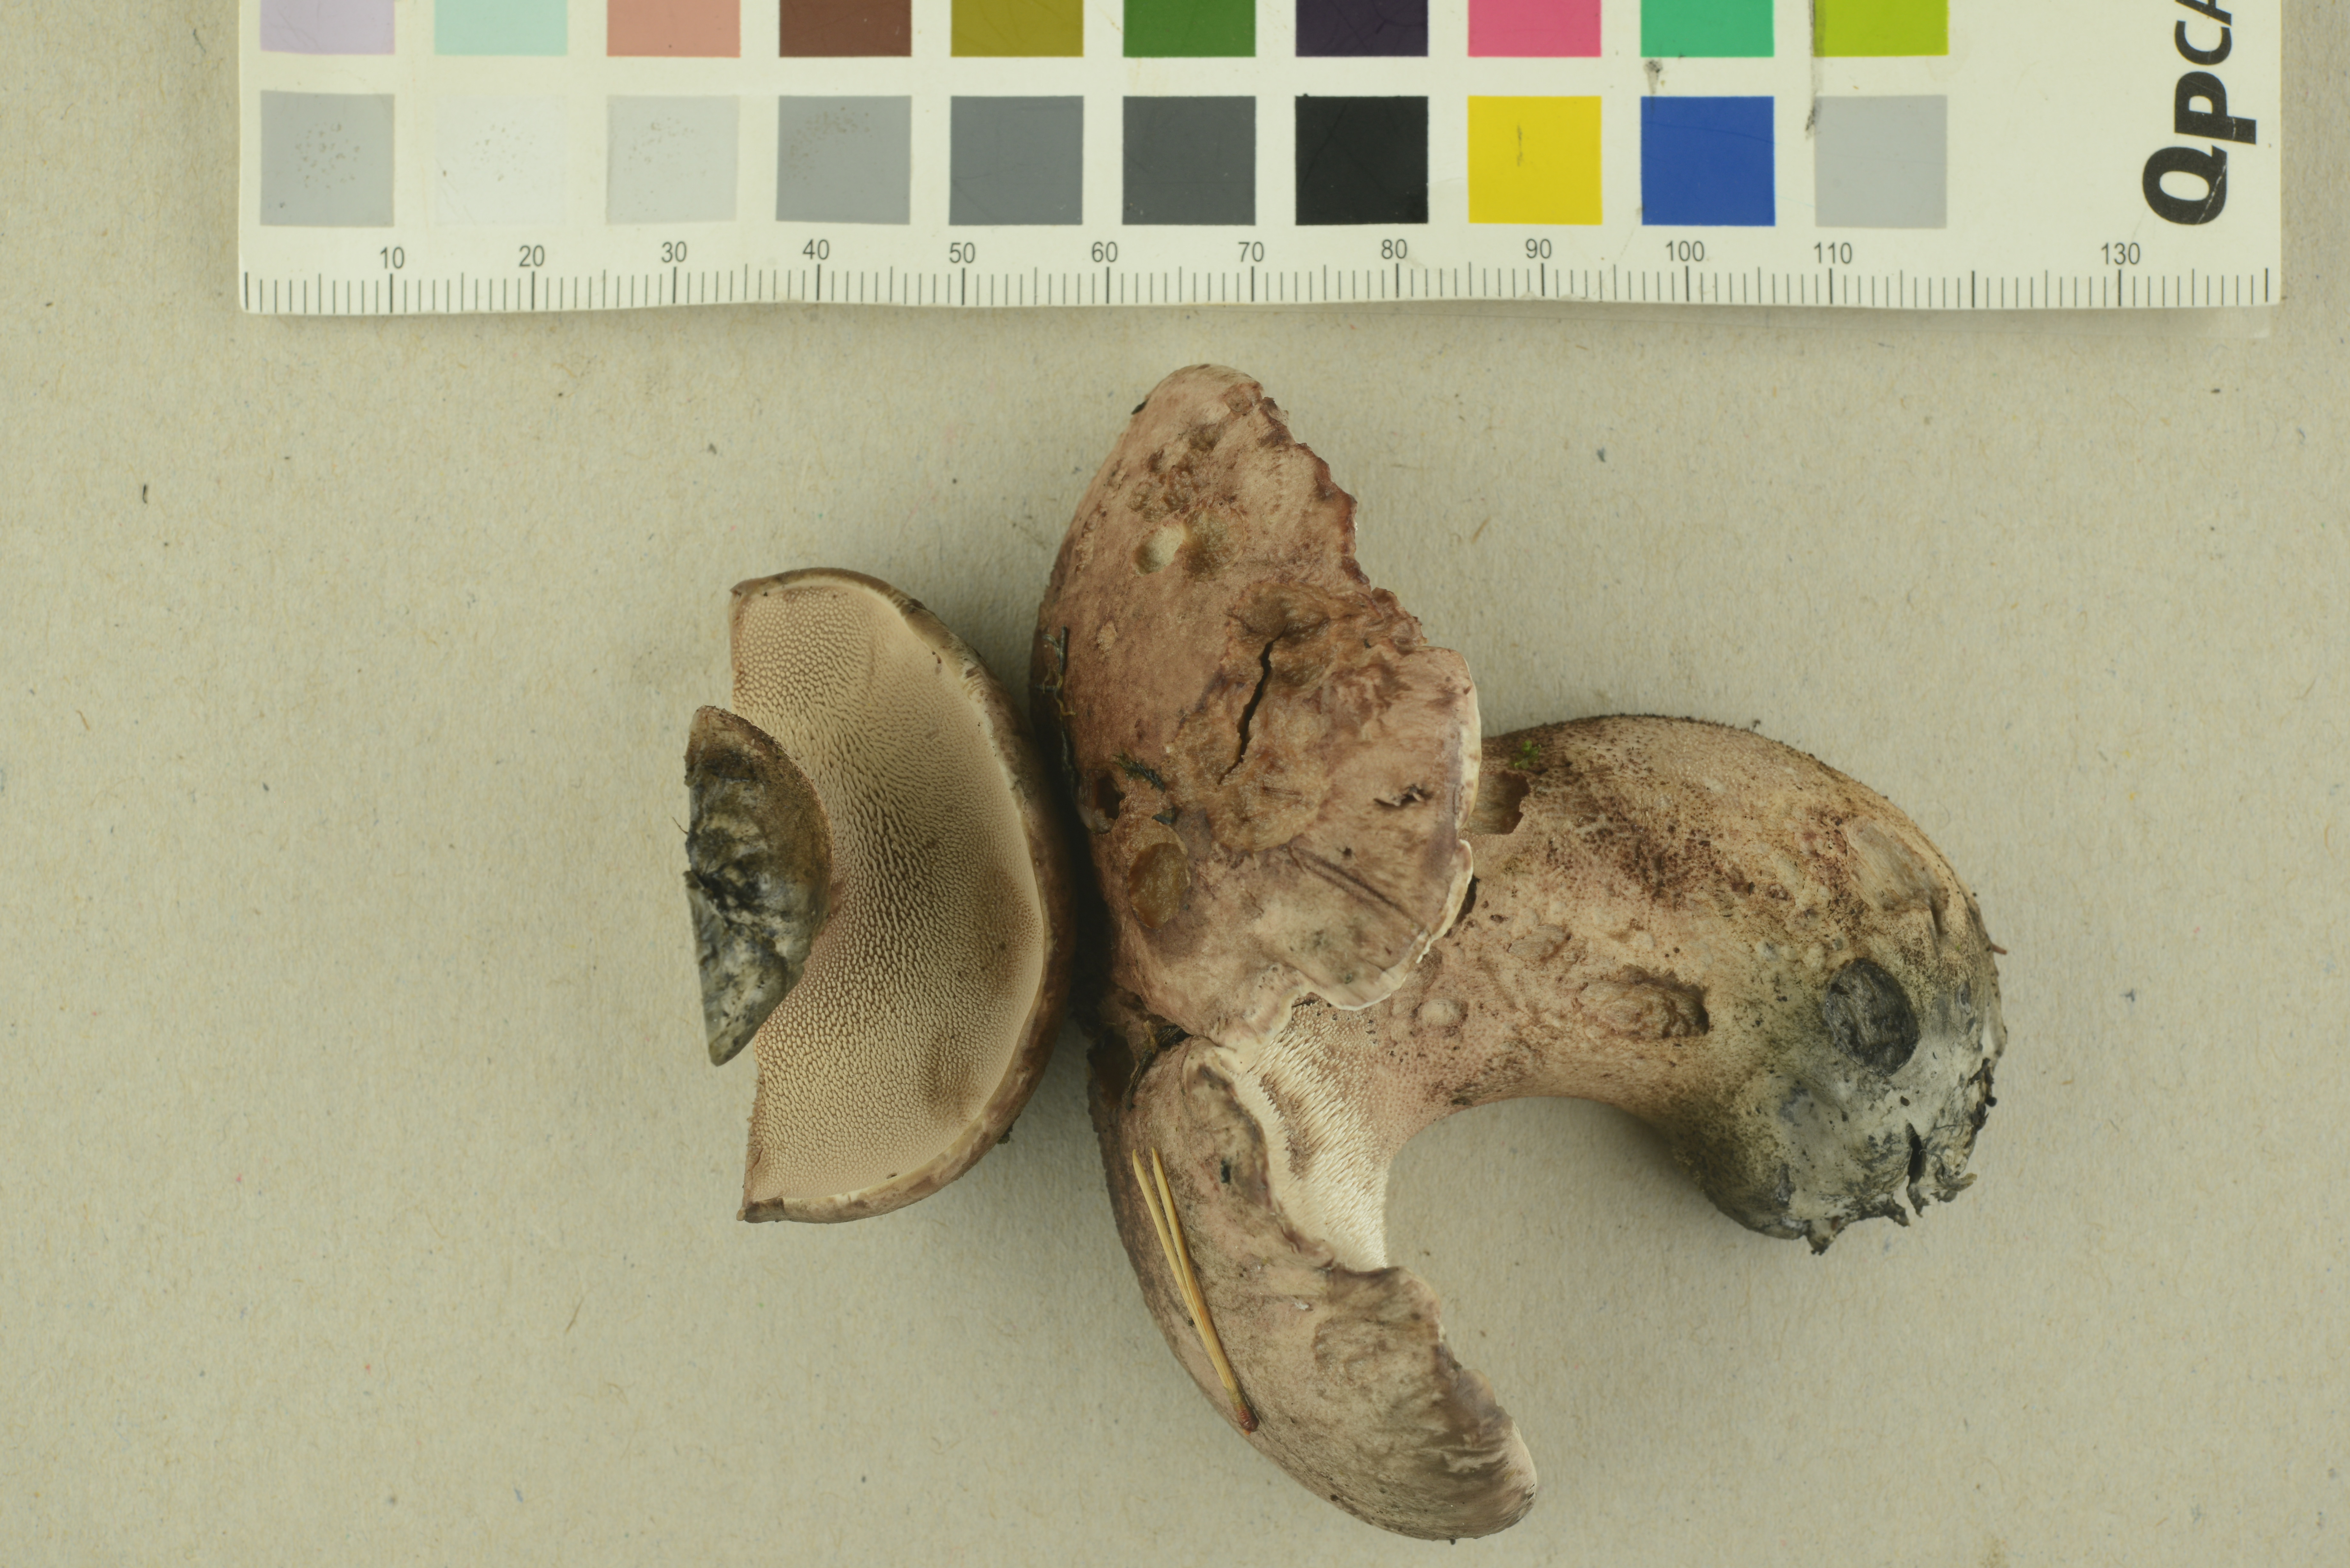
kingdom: Fungi
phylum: Basidiomycota
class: Agaricomycetes
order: Thelephorales
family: Bankeraceae
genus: Hydnellum
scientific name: Hydnellum scabrosum
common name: Bitter tooth
